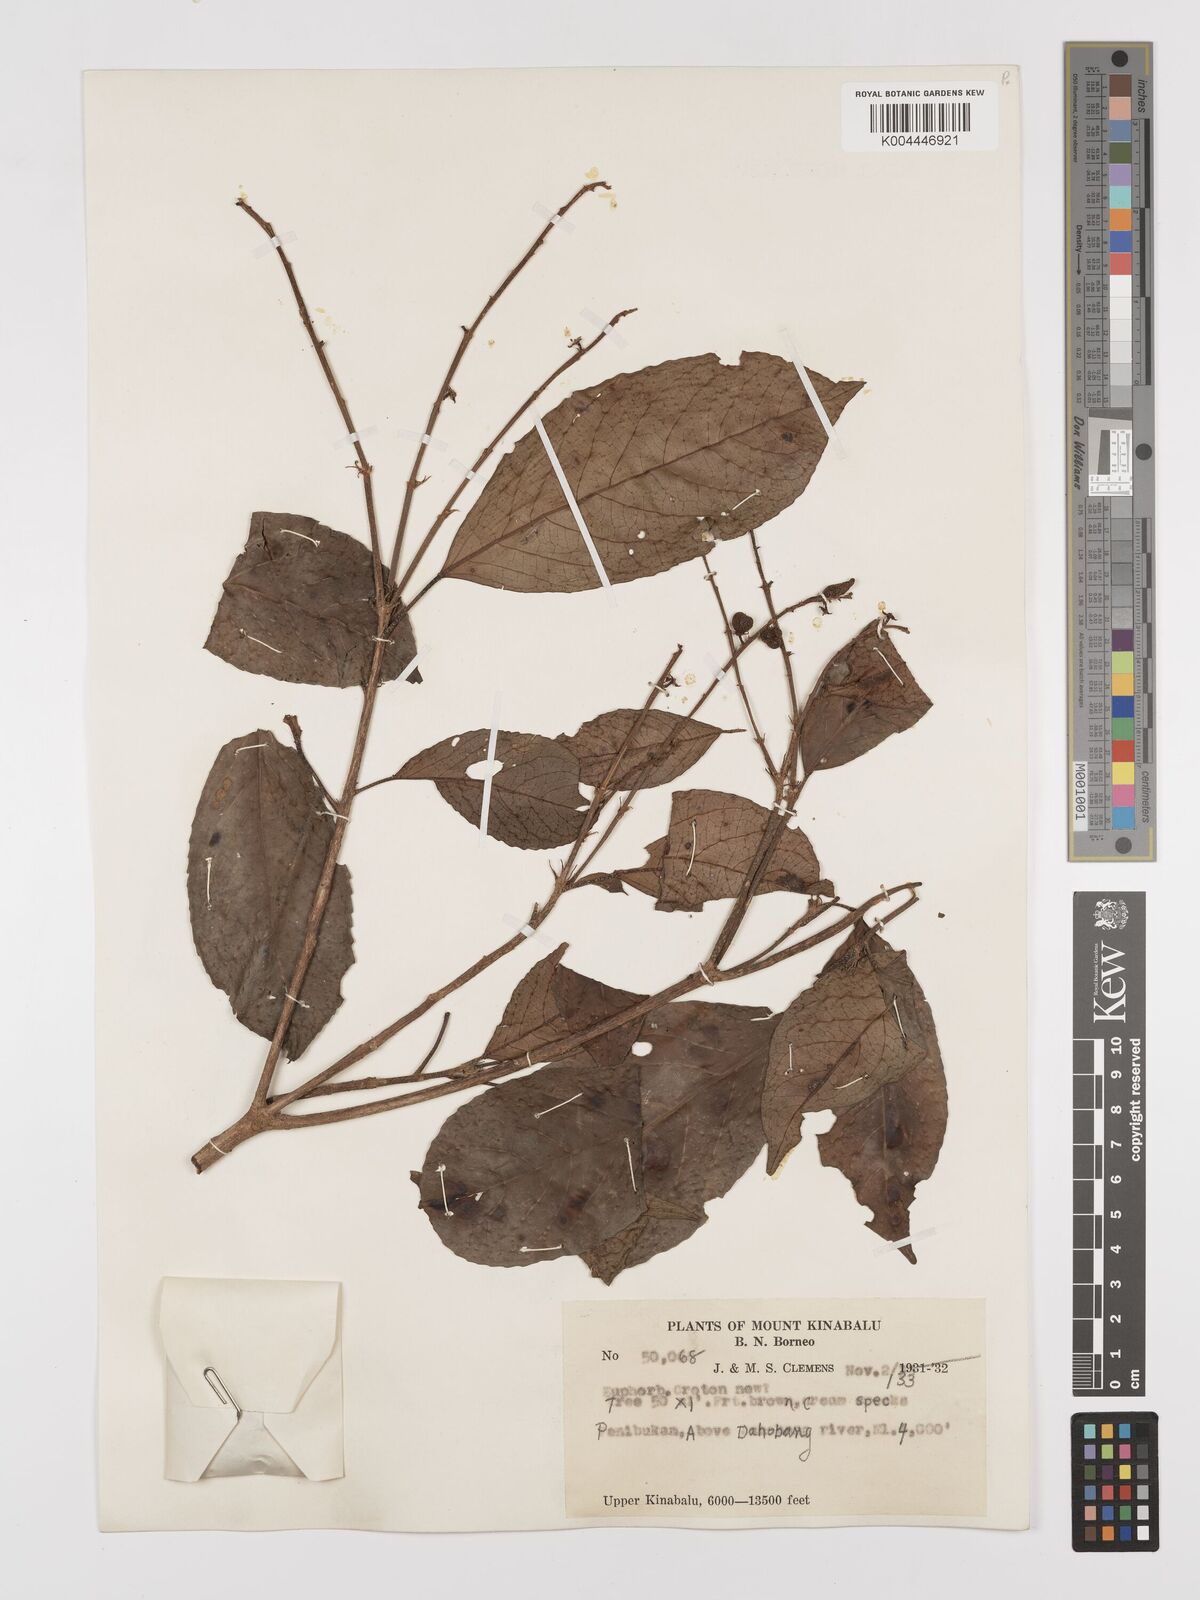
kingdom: Plantae
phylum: Tracheophyta
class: Magnoliopsida
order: Malpighiales
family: Euphorbiaceae
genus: Croton
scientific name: Croton
